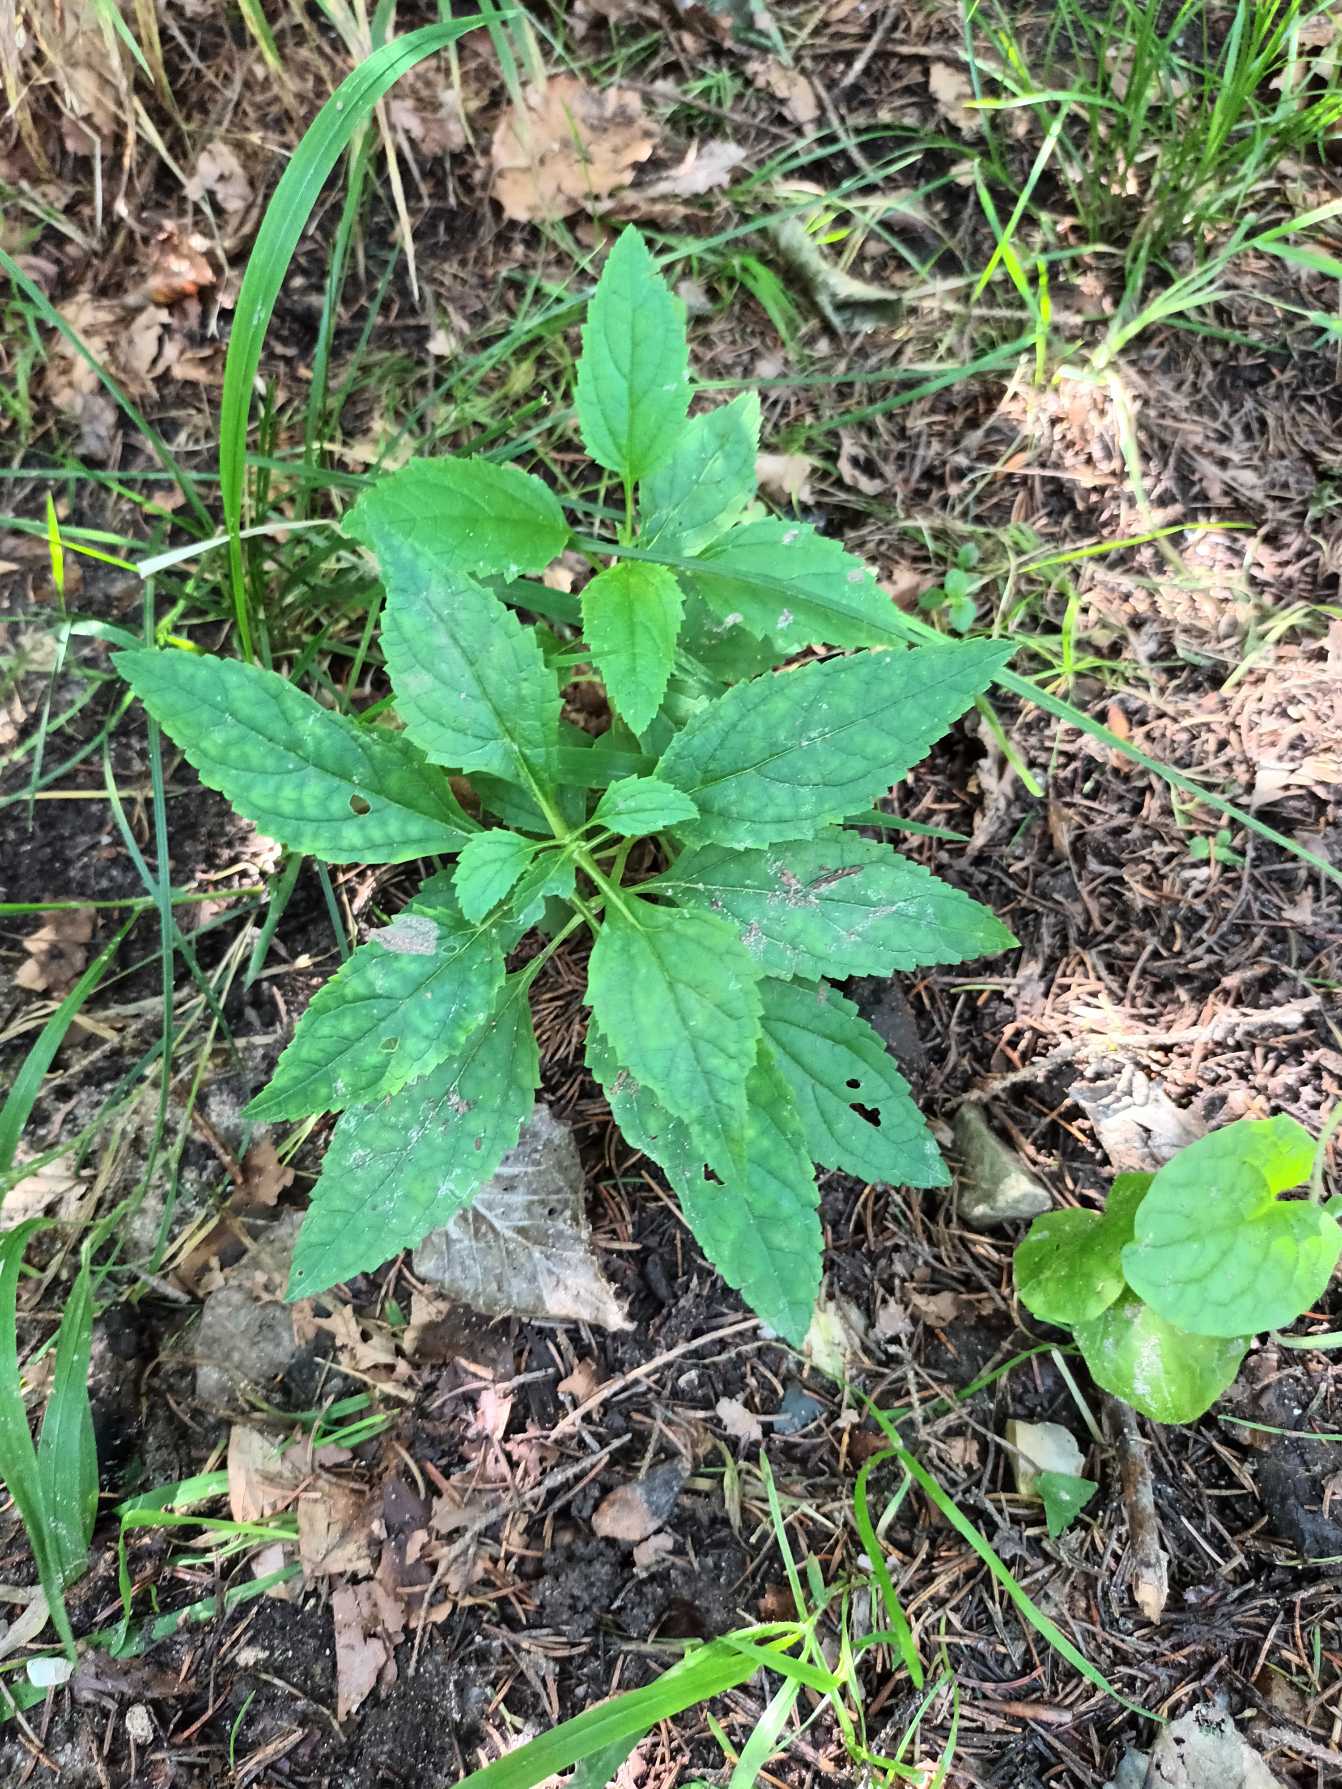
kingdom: Plantae
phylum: Tracheophyta
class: Magnoliopsida
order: Lamiales
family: Scrophulariaceae
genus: Scrophularia
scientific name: Scrophularia nodosa
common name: Knoldet brunrod
